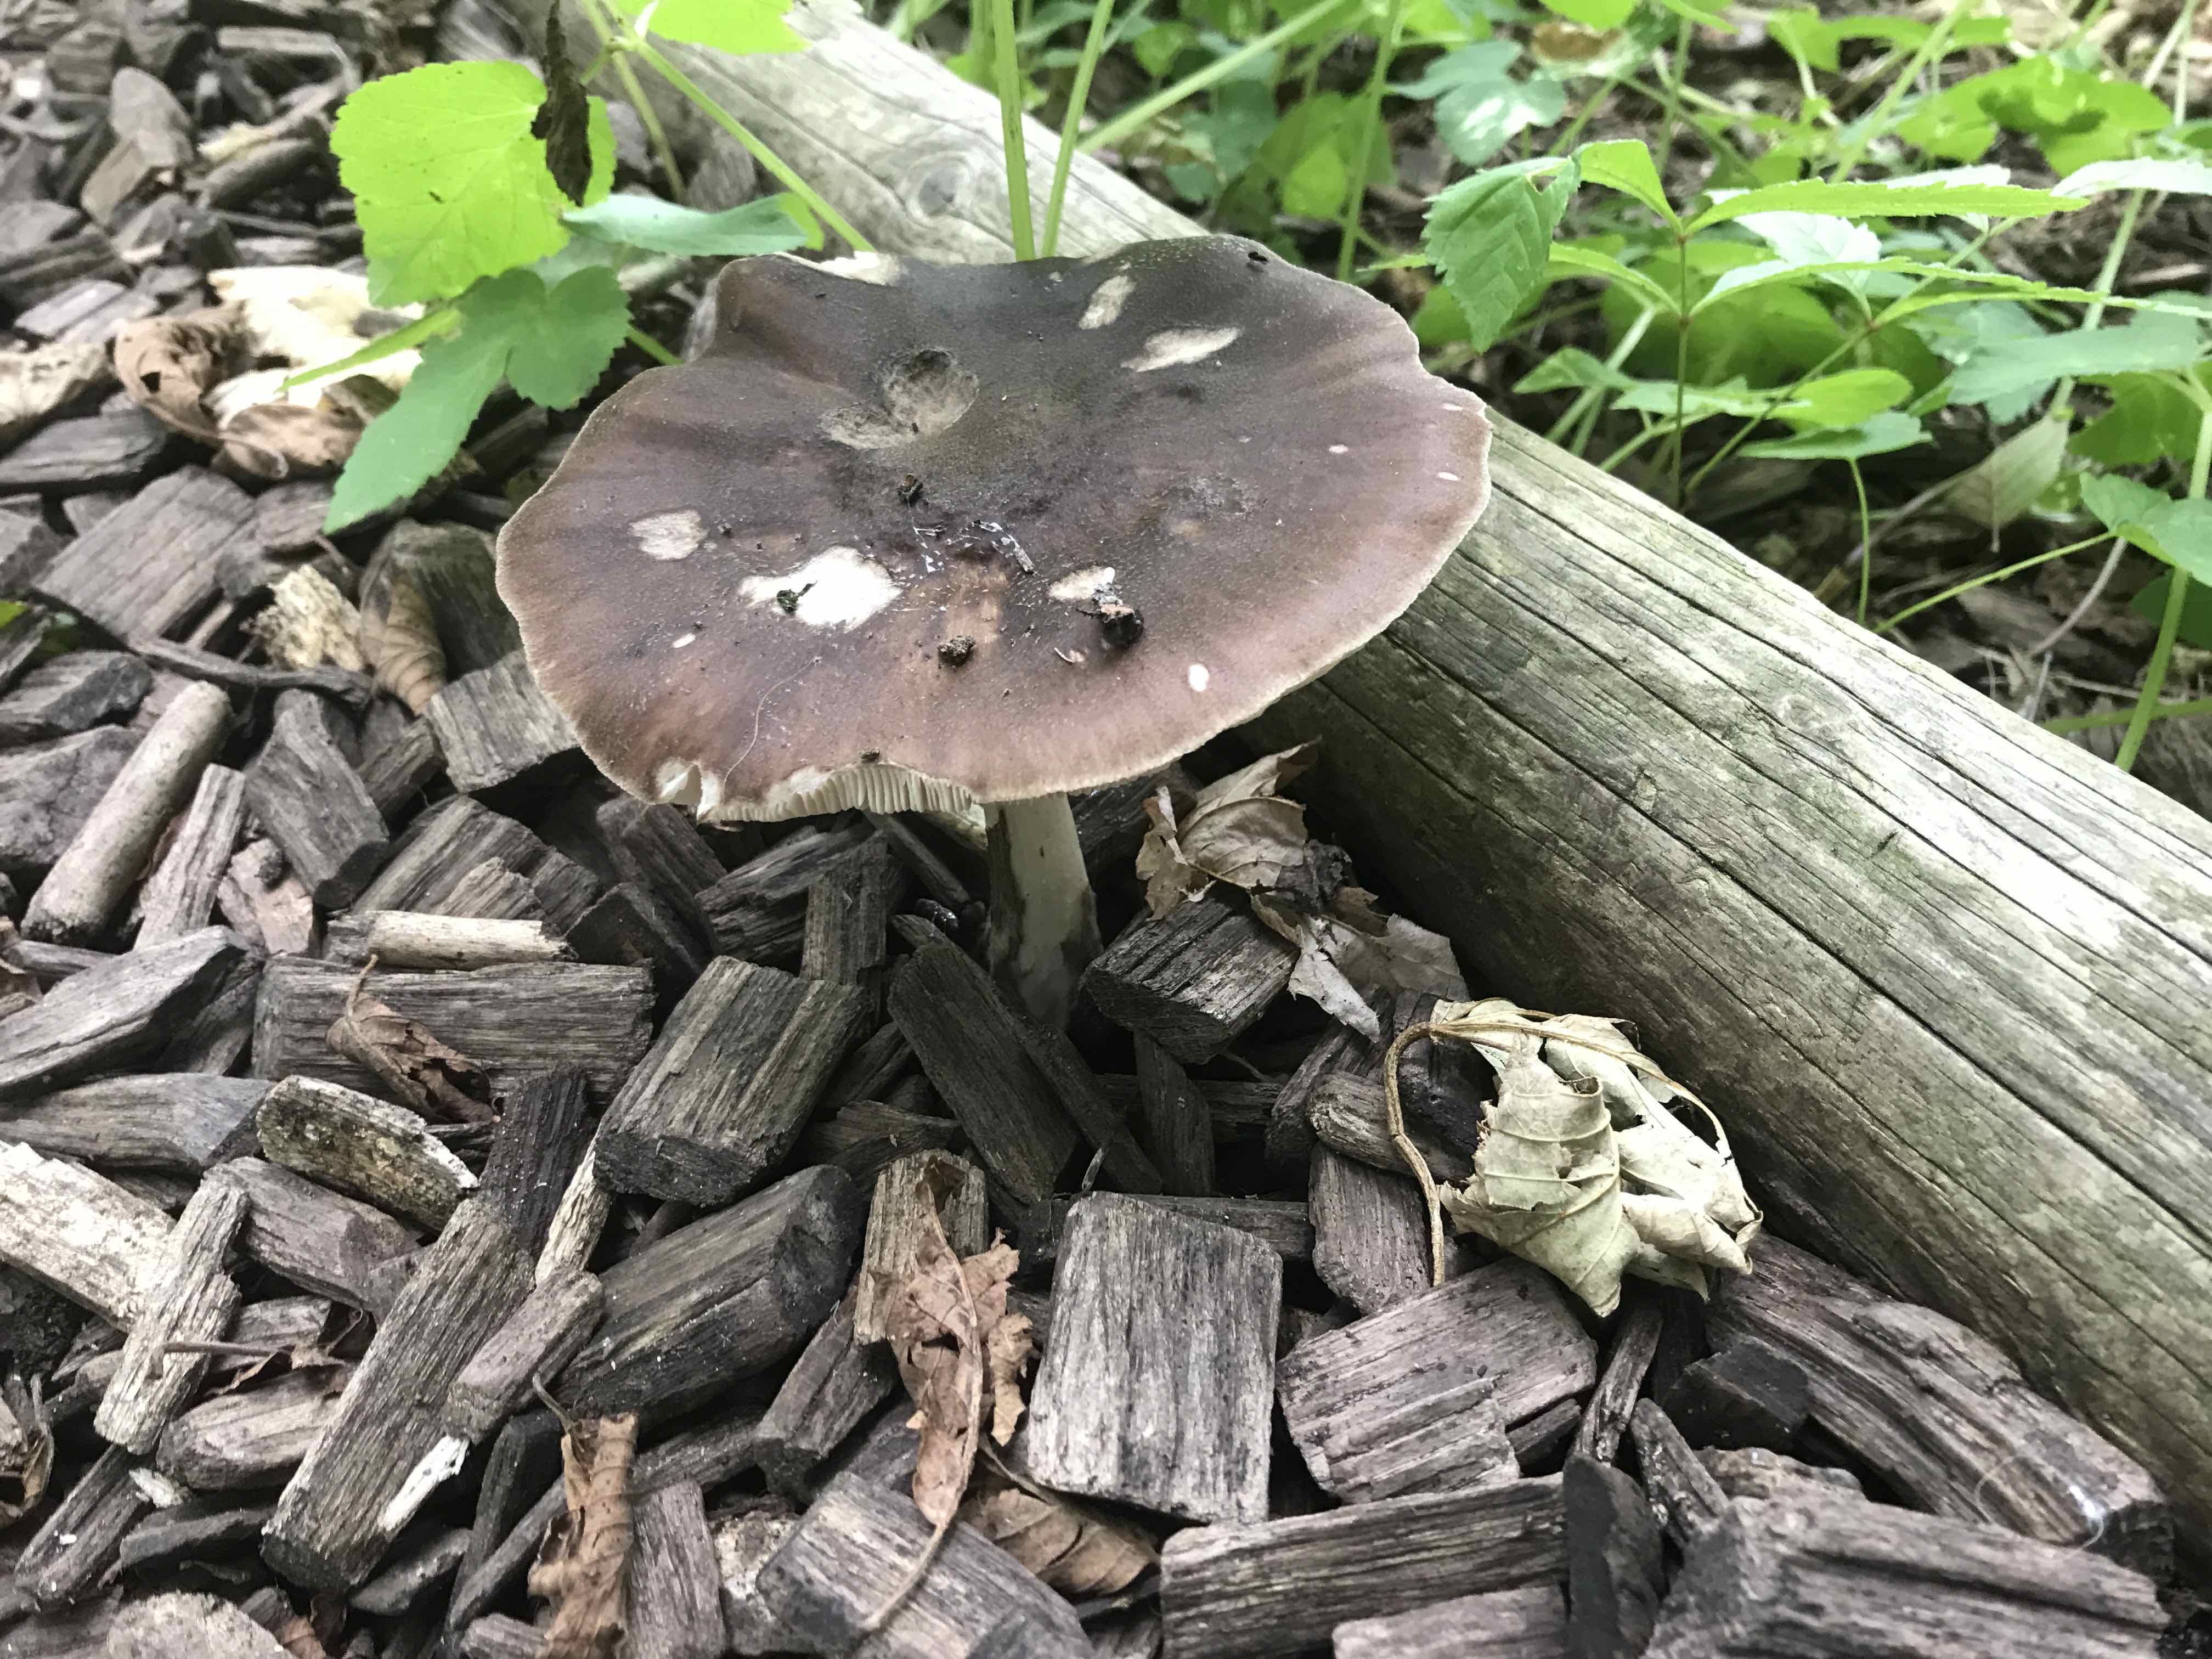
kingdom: Fungi
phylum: Basidiomycota
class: Agaricomycetes
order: Agaricales
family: Pluteaceae
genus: Pluteus
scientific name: Pluteus cervinus
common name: sodfarvet skærmhat
